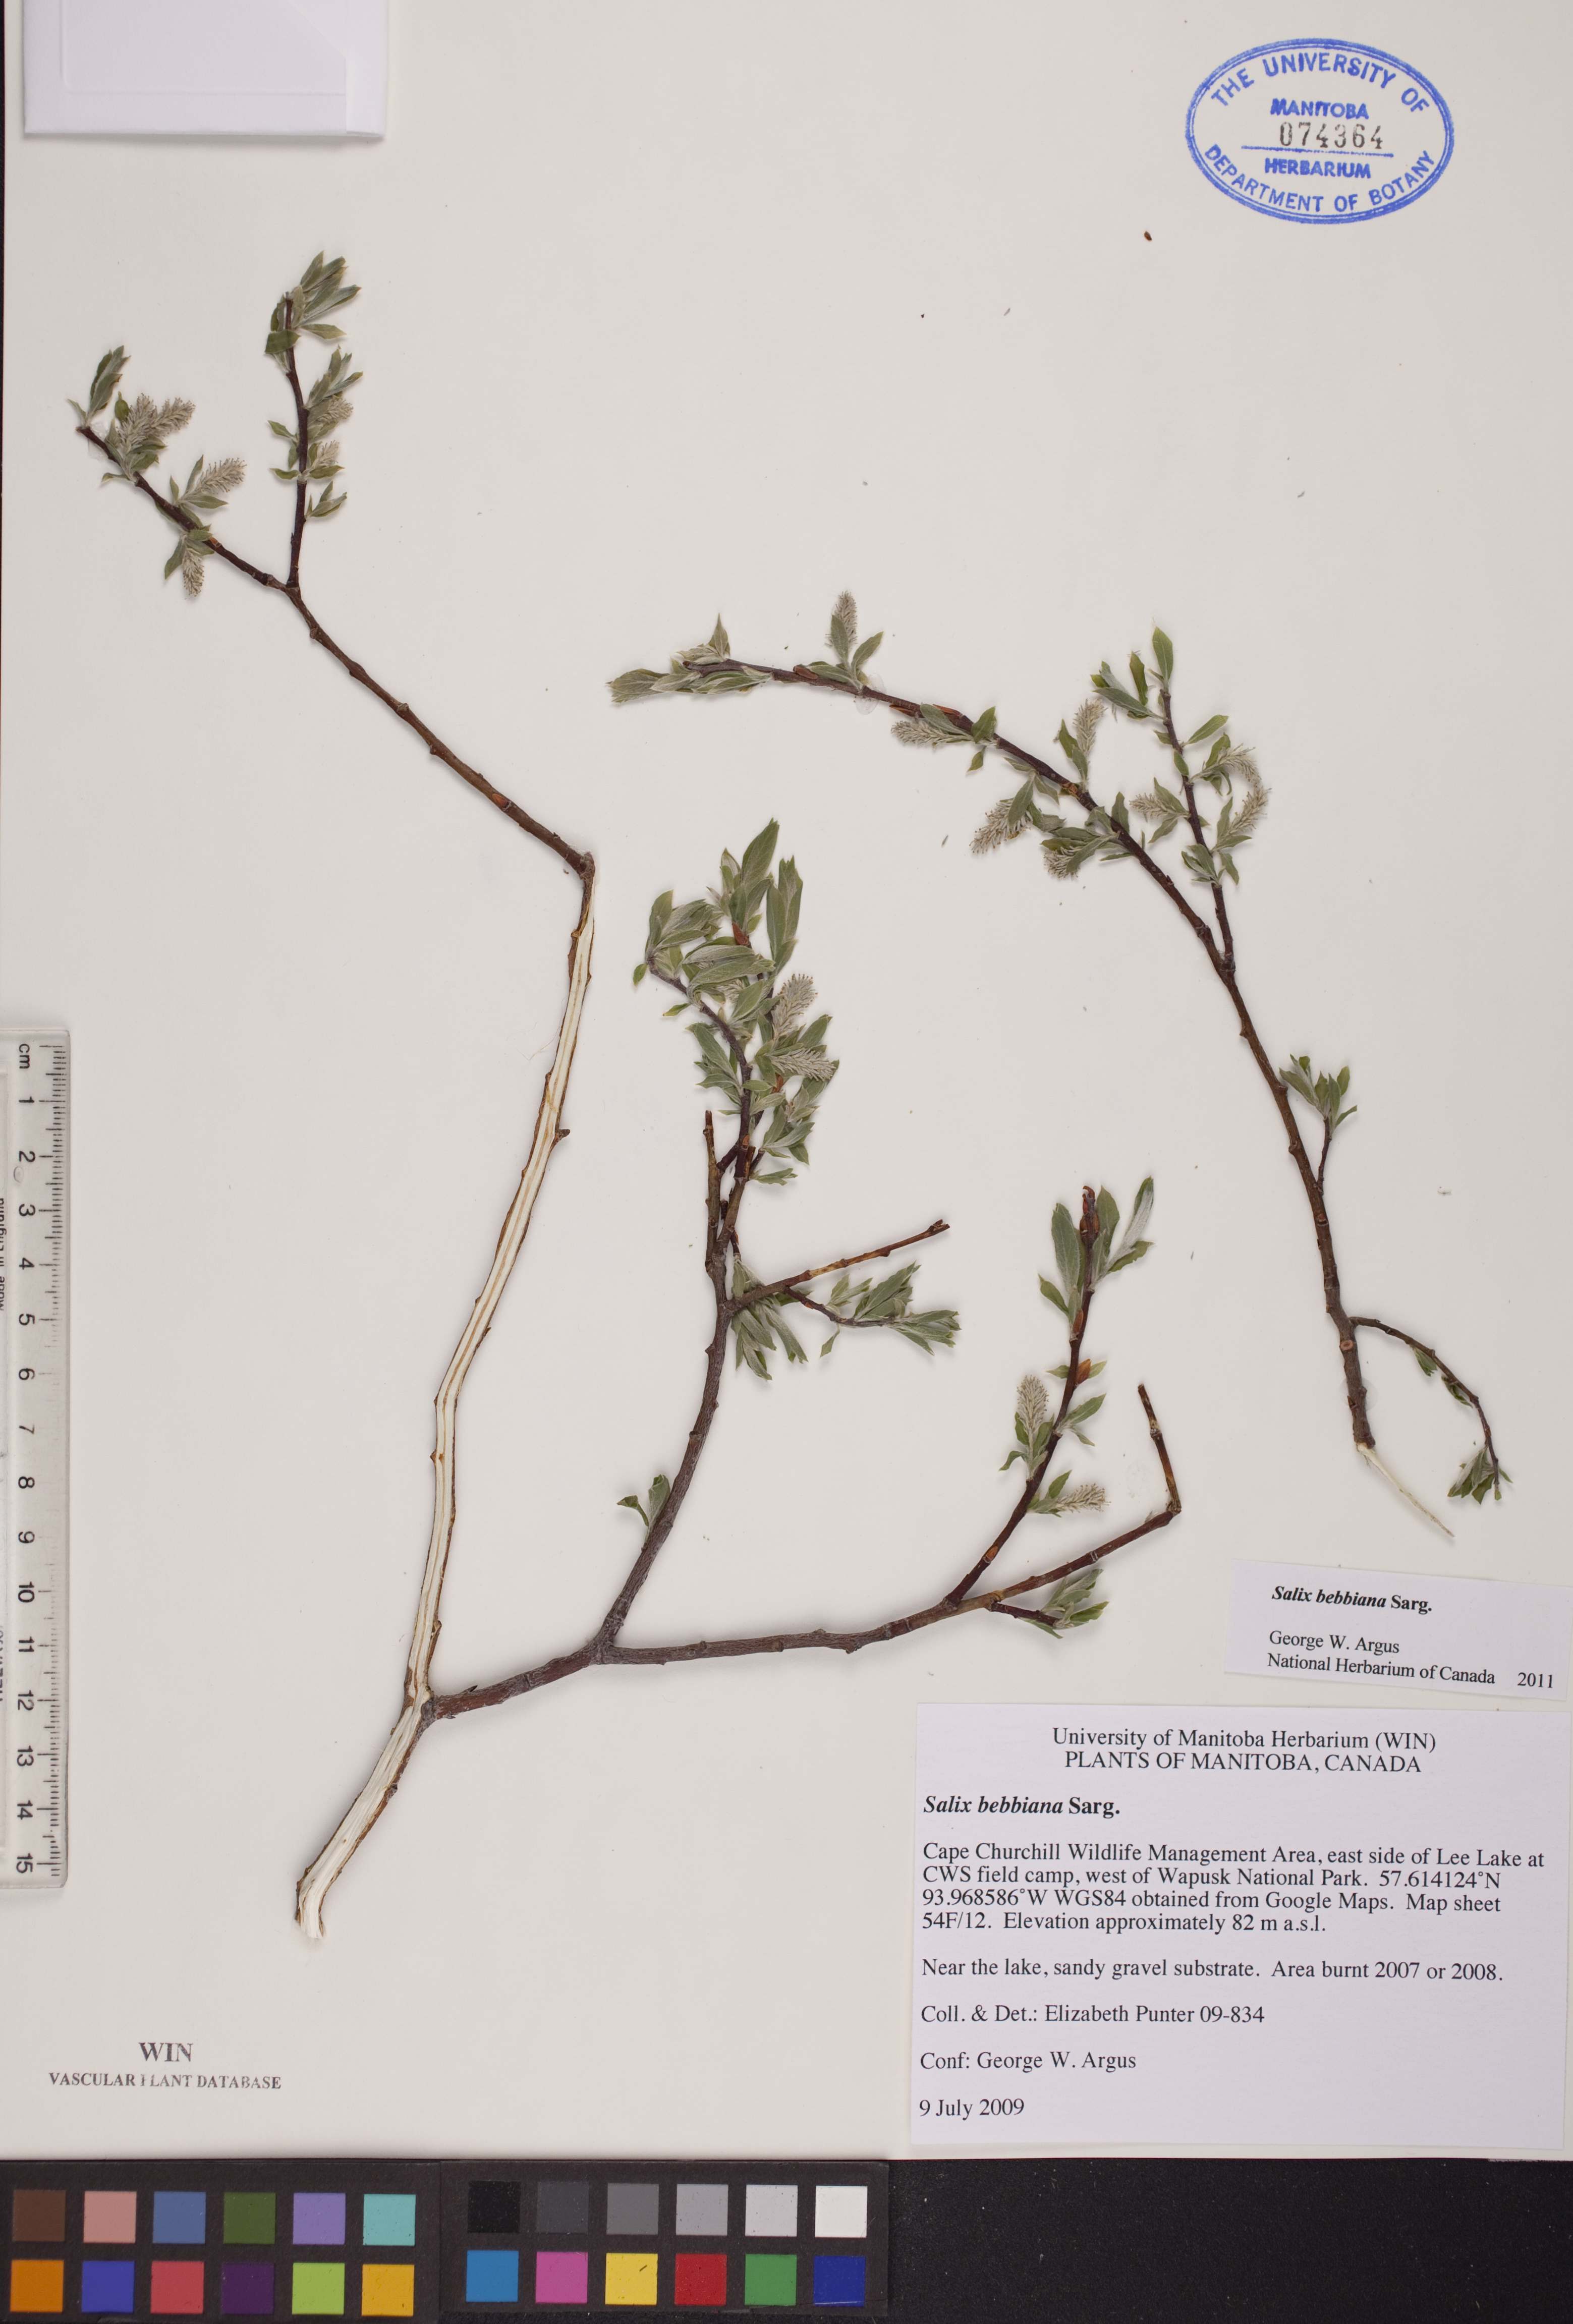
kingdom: Plantae
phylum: Tracheophyta
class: Magnoliopsida
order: Malpighiales
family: Salicaceae
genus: Salix
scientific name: Salix bebbiana
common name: Bebb's willow
